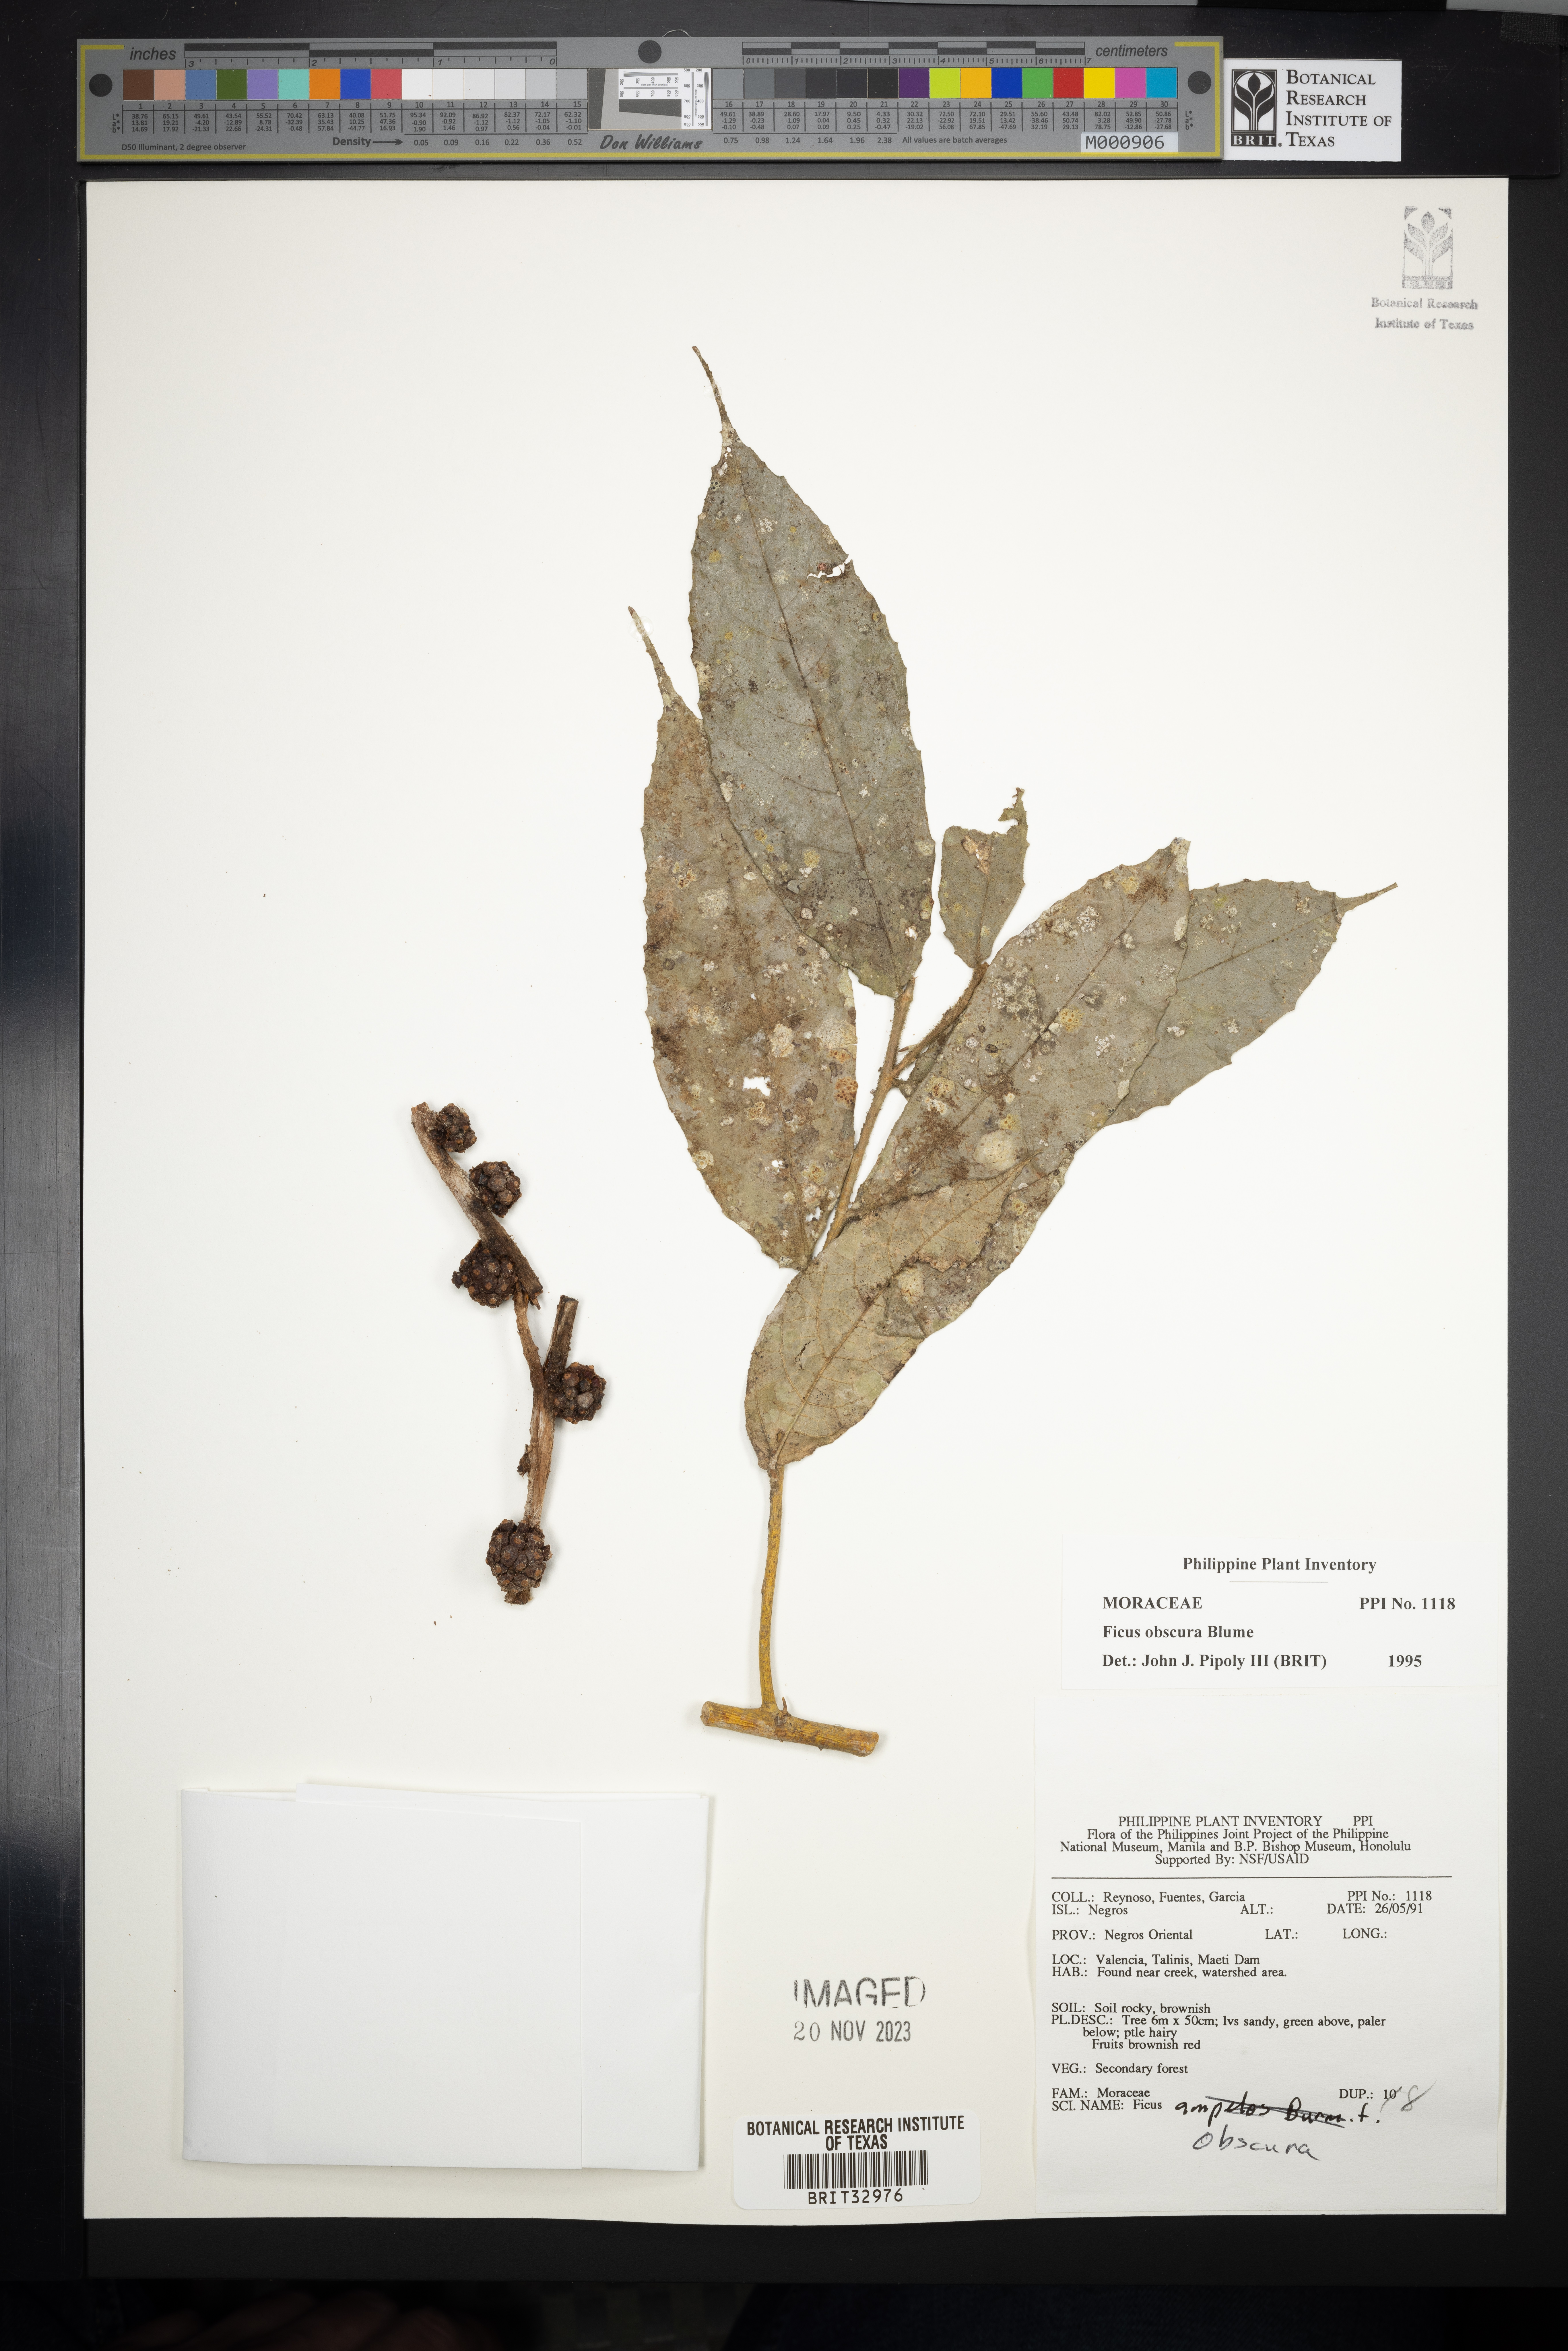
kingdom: Plantae
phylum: Tracheophyta
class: Magnoliopsida
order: Rosales
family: Moraceae
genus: Ficus
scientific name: Ficus obscura
